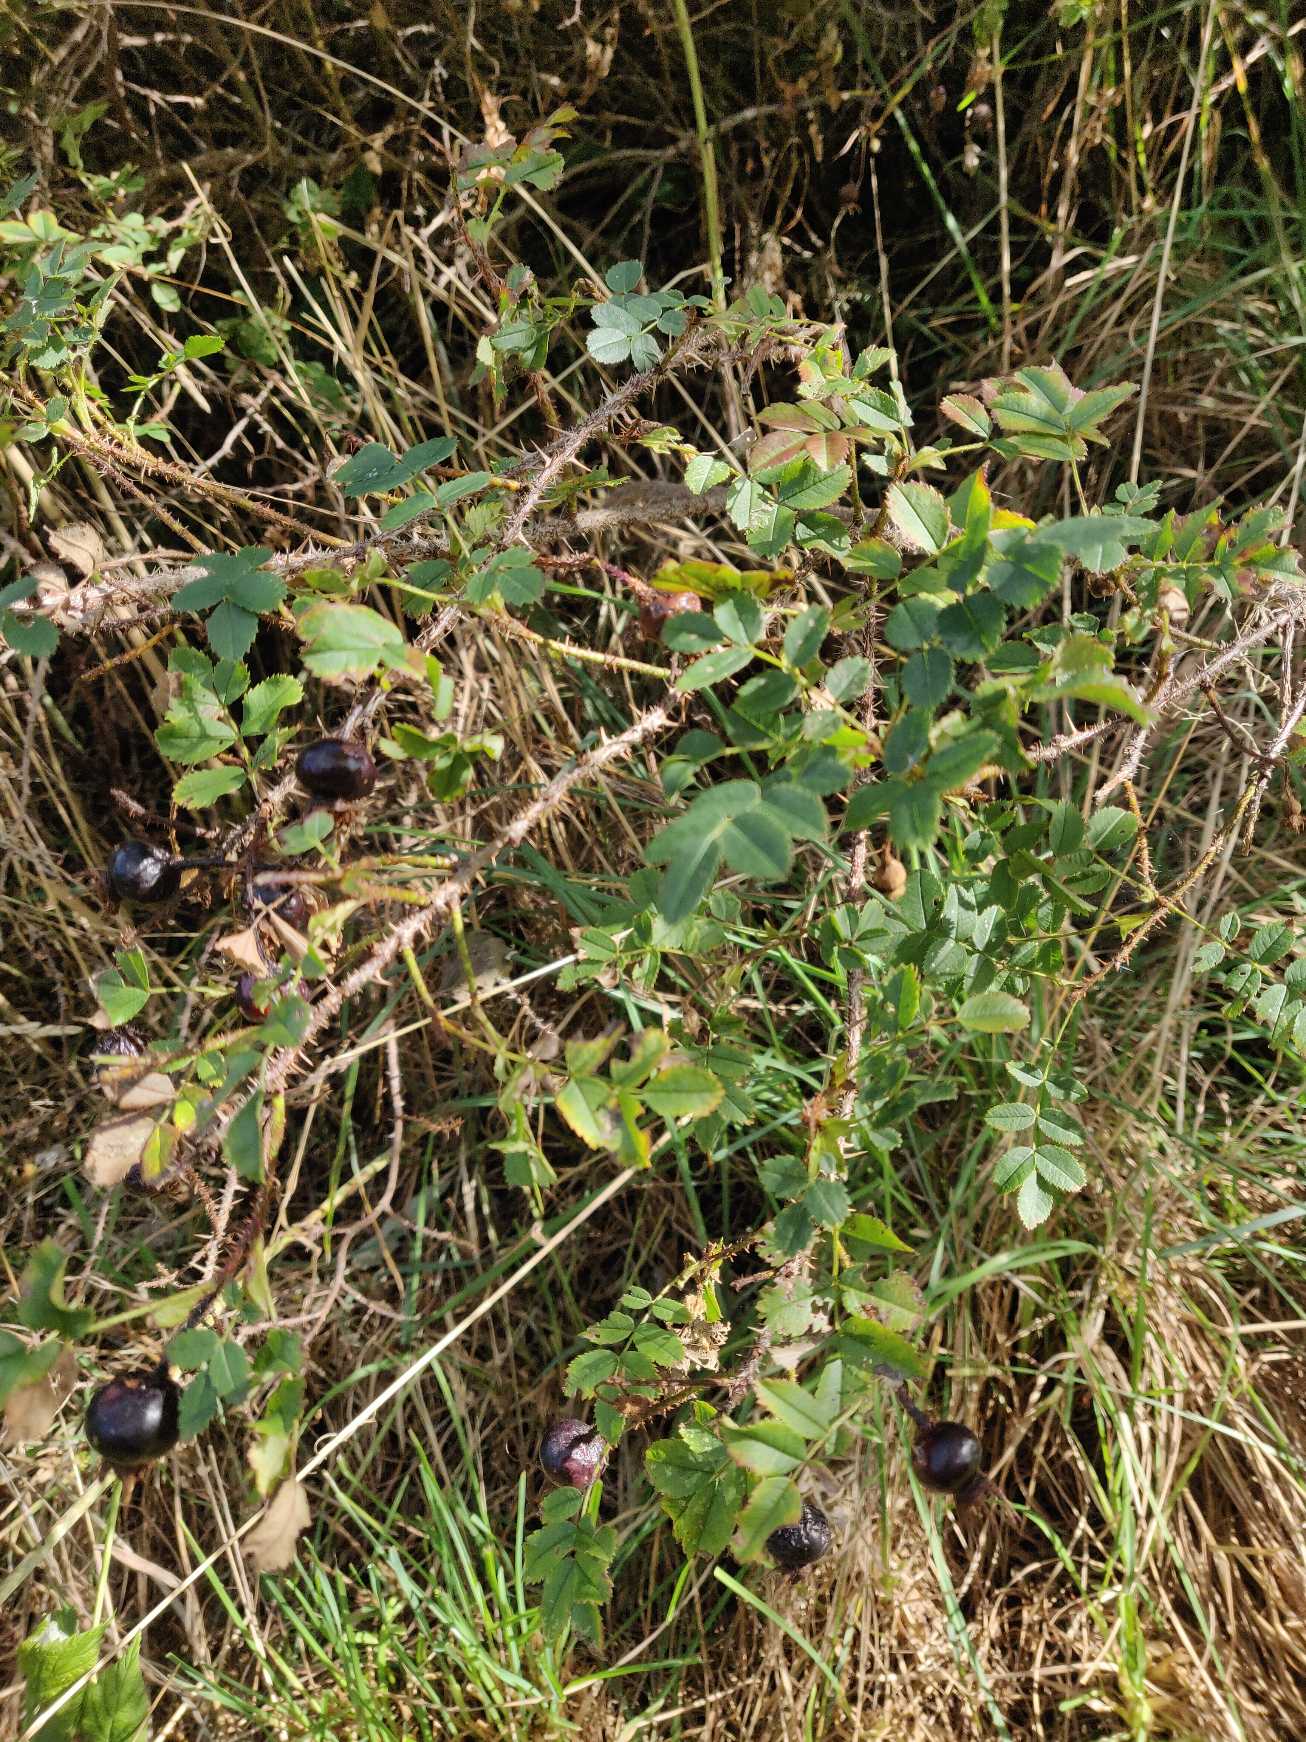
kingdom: Plantae
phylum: Tracheophyta
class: Magnoliopsida
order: Rosales
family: Rosaceae
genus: Rosa
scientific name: Rosa spinosissima
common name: Klit-rose
